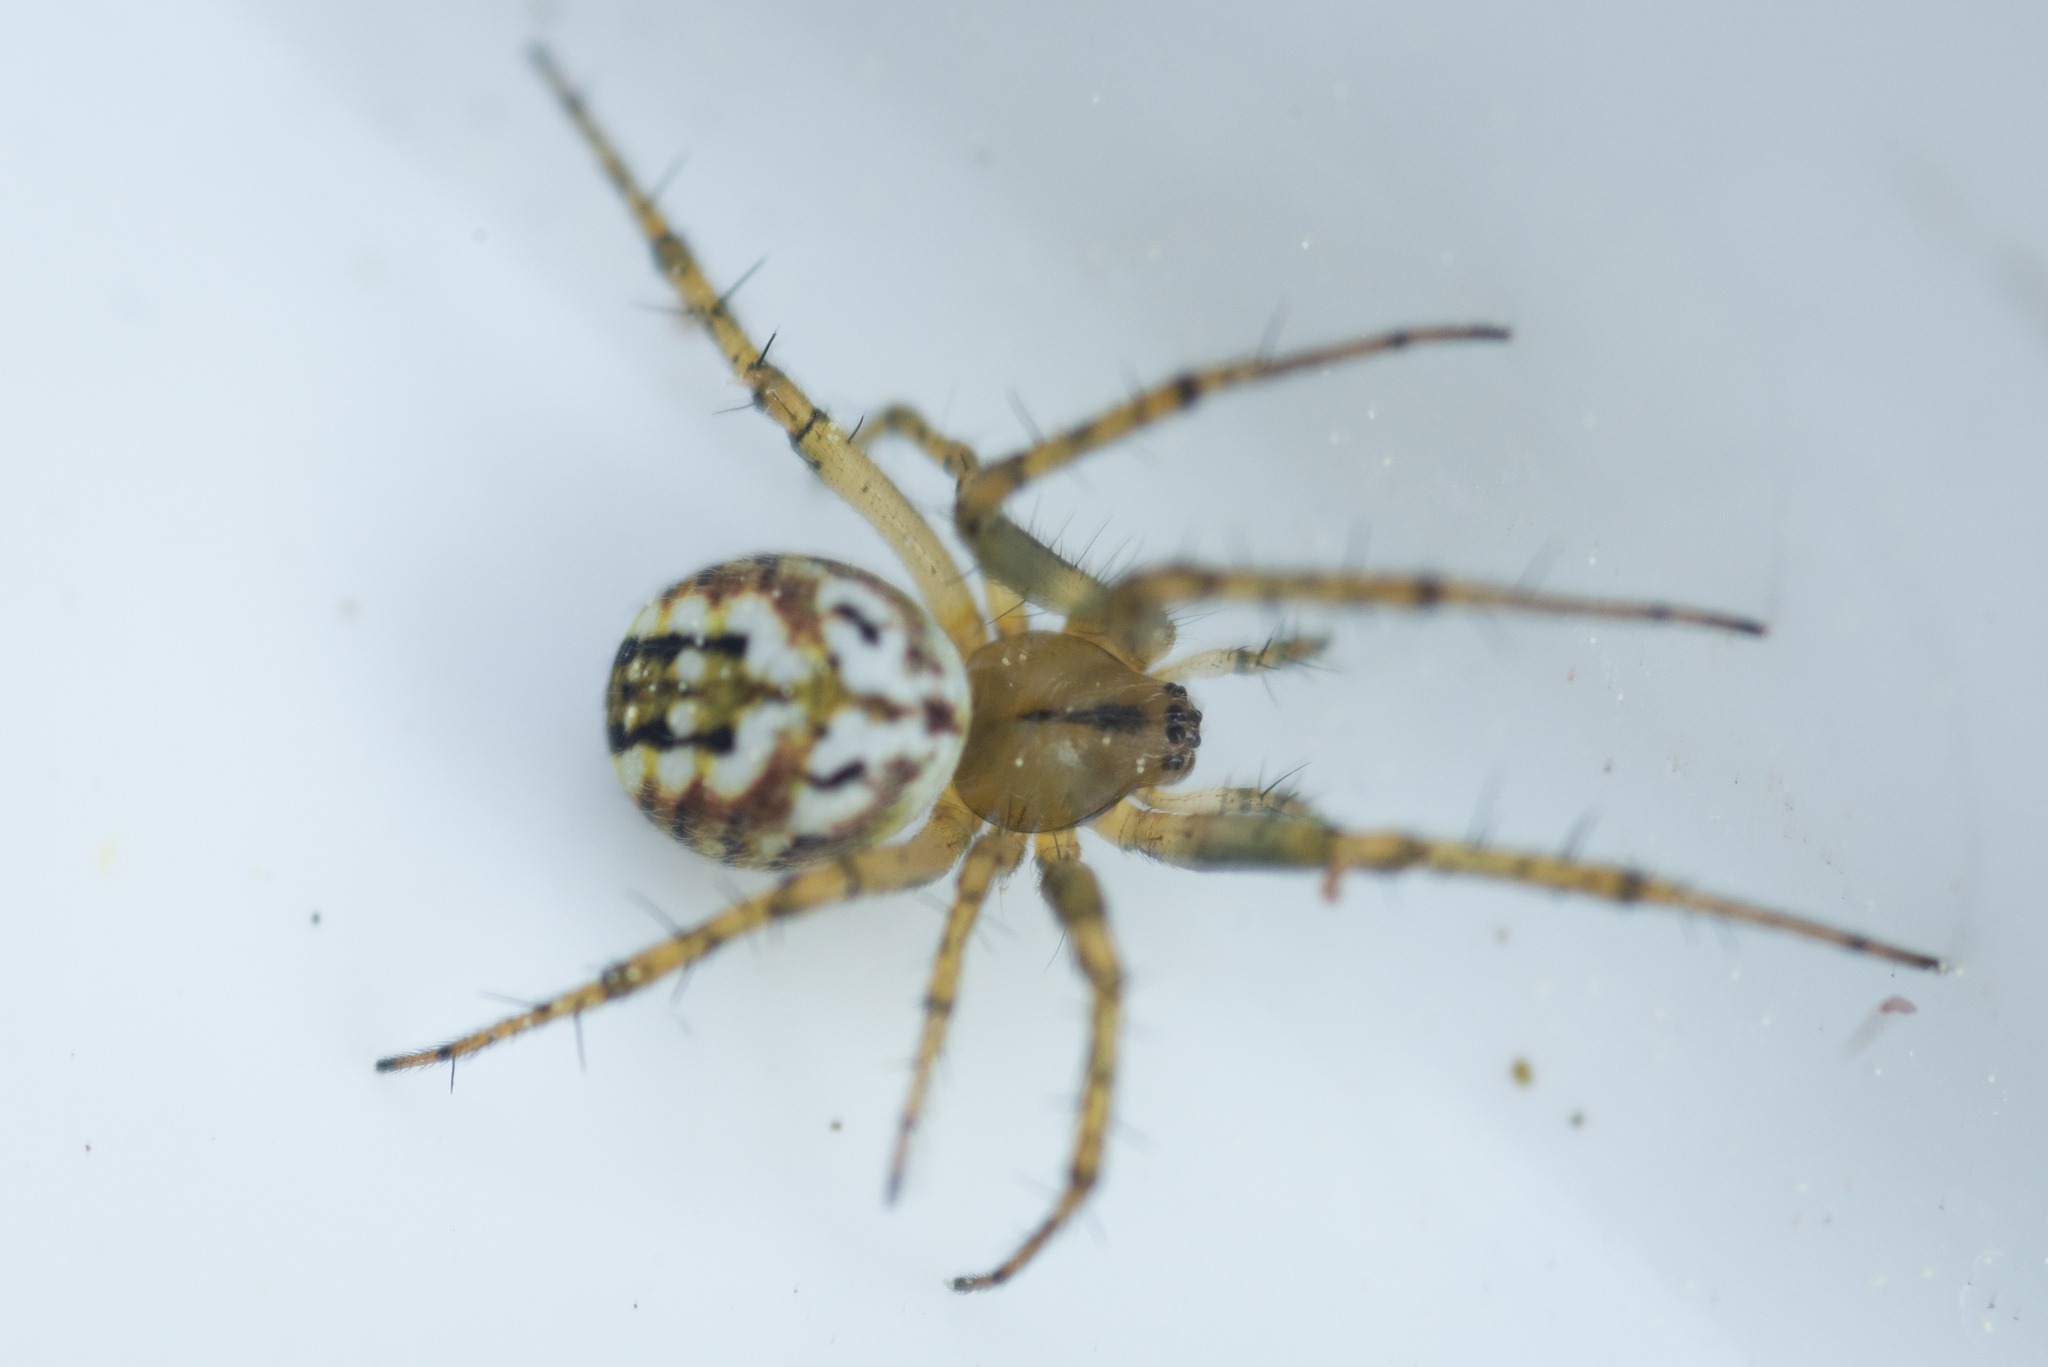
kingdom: Animalia
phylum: Arthropoda
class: Arachnida
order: Araneae
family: Araneidae
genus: Mangora
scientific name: Mangora acalypha
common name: Sortstribet hedehjulspinder
